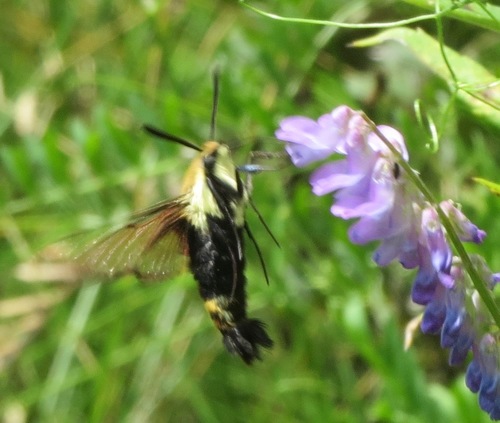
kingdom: Animalia
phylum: Arthropoda
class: Insecta
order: Lepidoptera
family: Sphingidae
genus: Hemaris
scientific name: Hemaris diffinis
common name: Bumblebee moth
